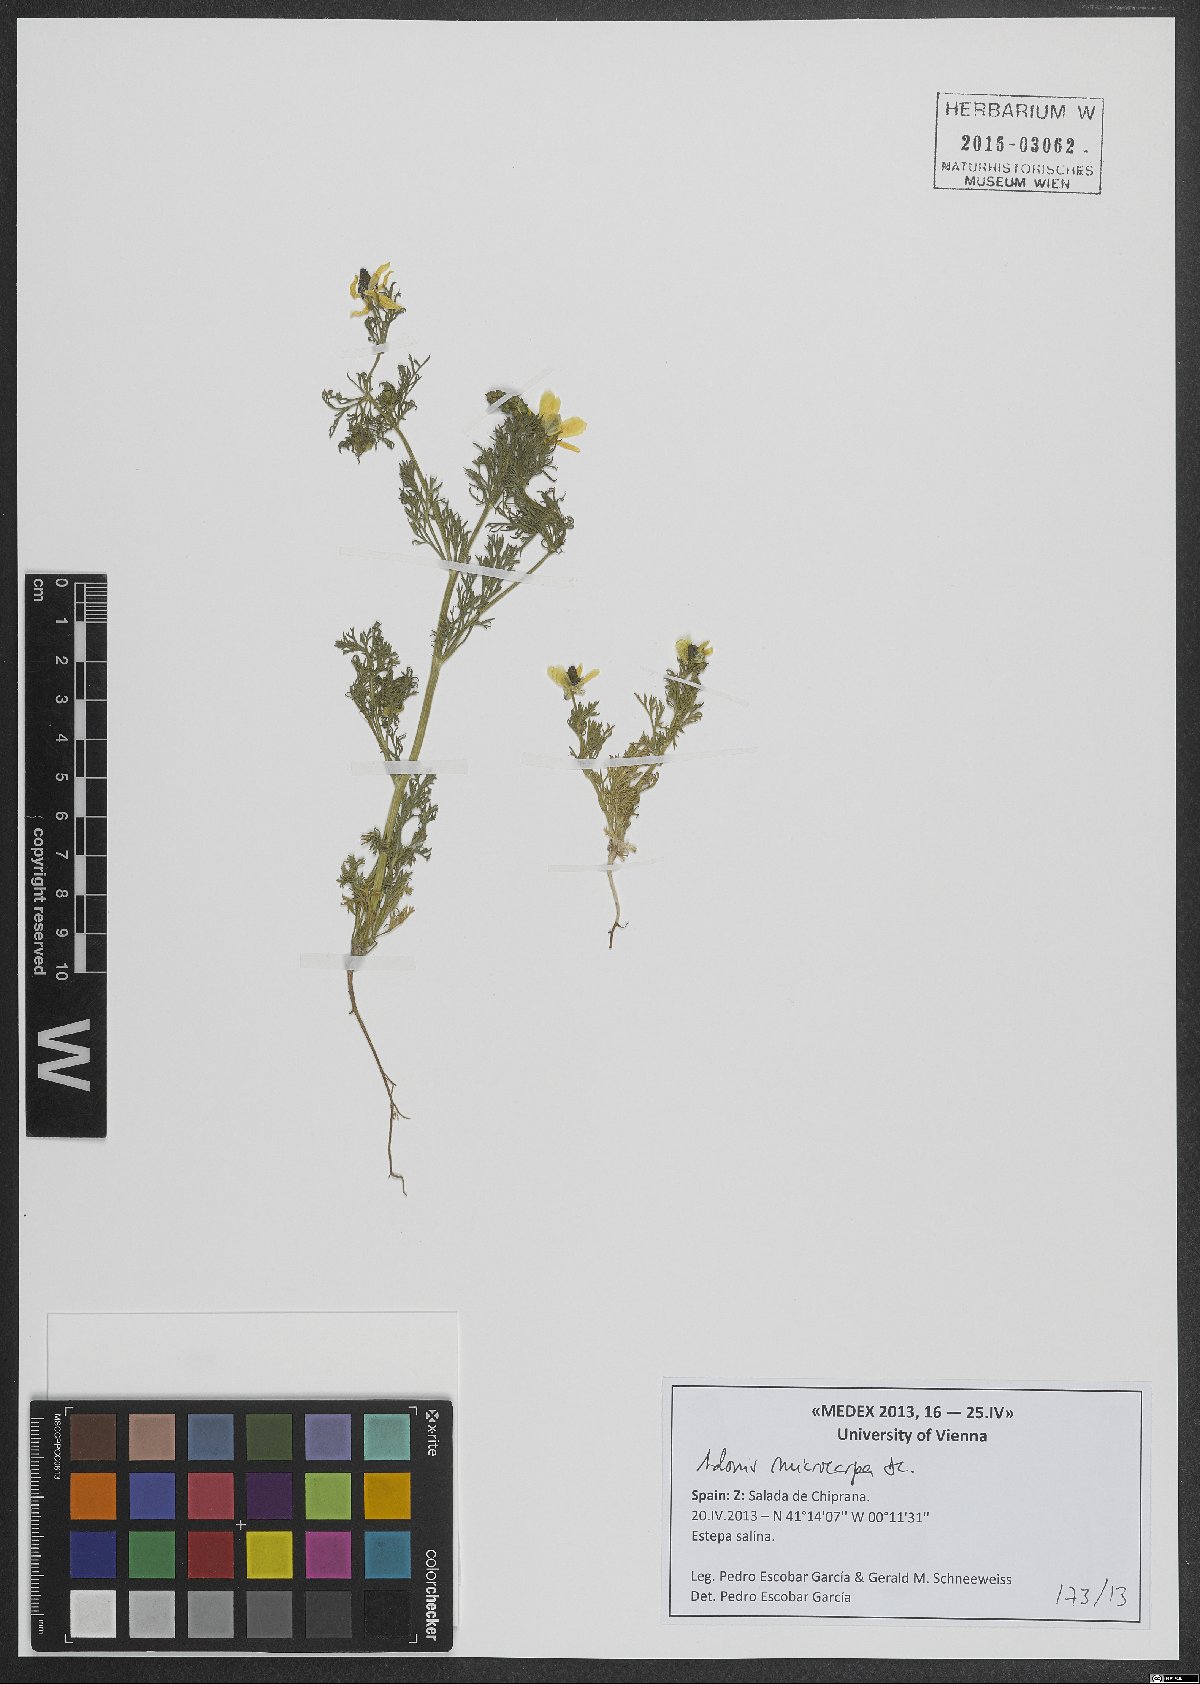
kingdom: Plantae
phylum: Tracheophyta
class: Magnoliopsida
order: Ranunculales
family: Ranunculaceae
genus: Adonis
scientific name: Adonis microcarpa
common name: Pheasant's-eye
